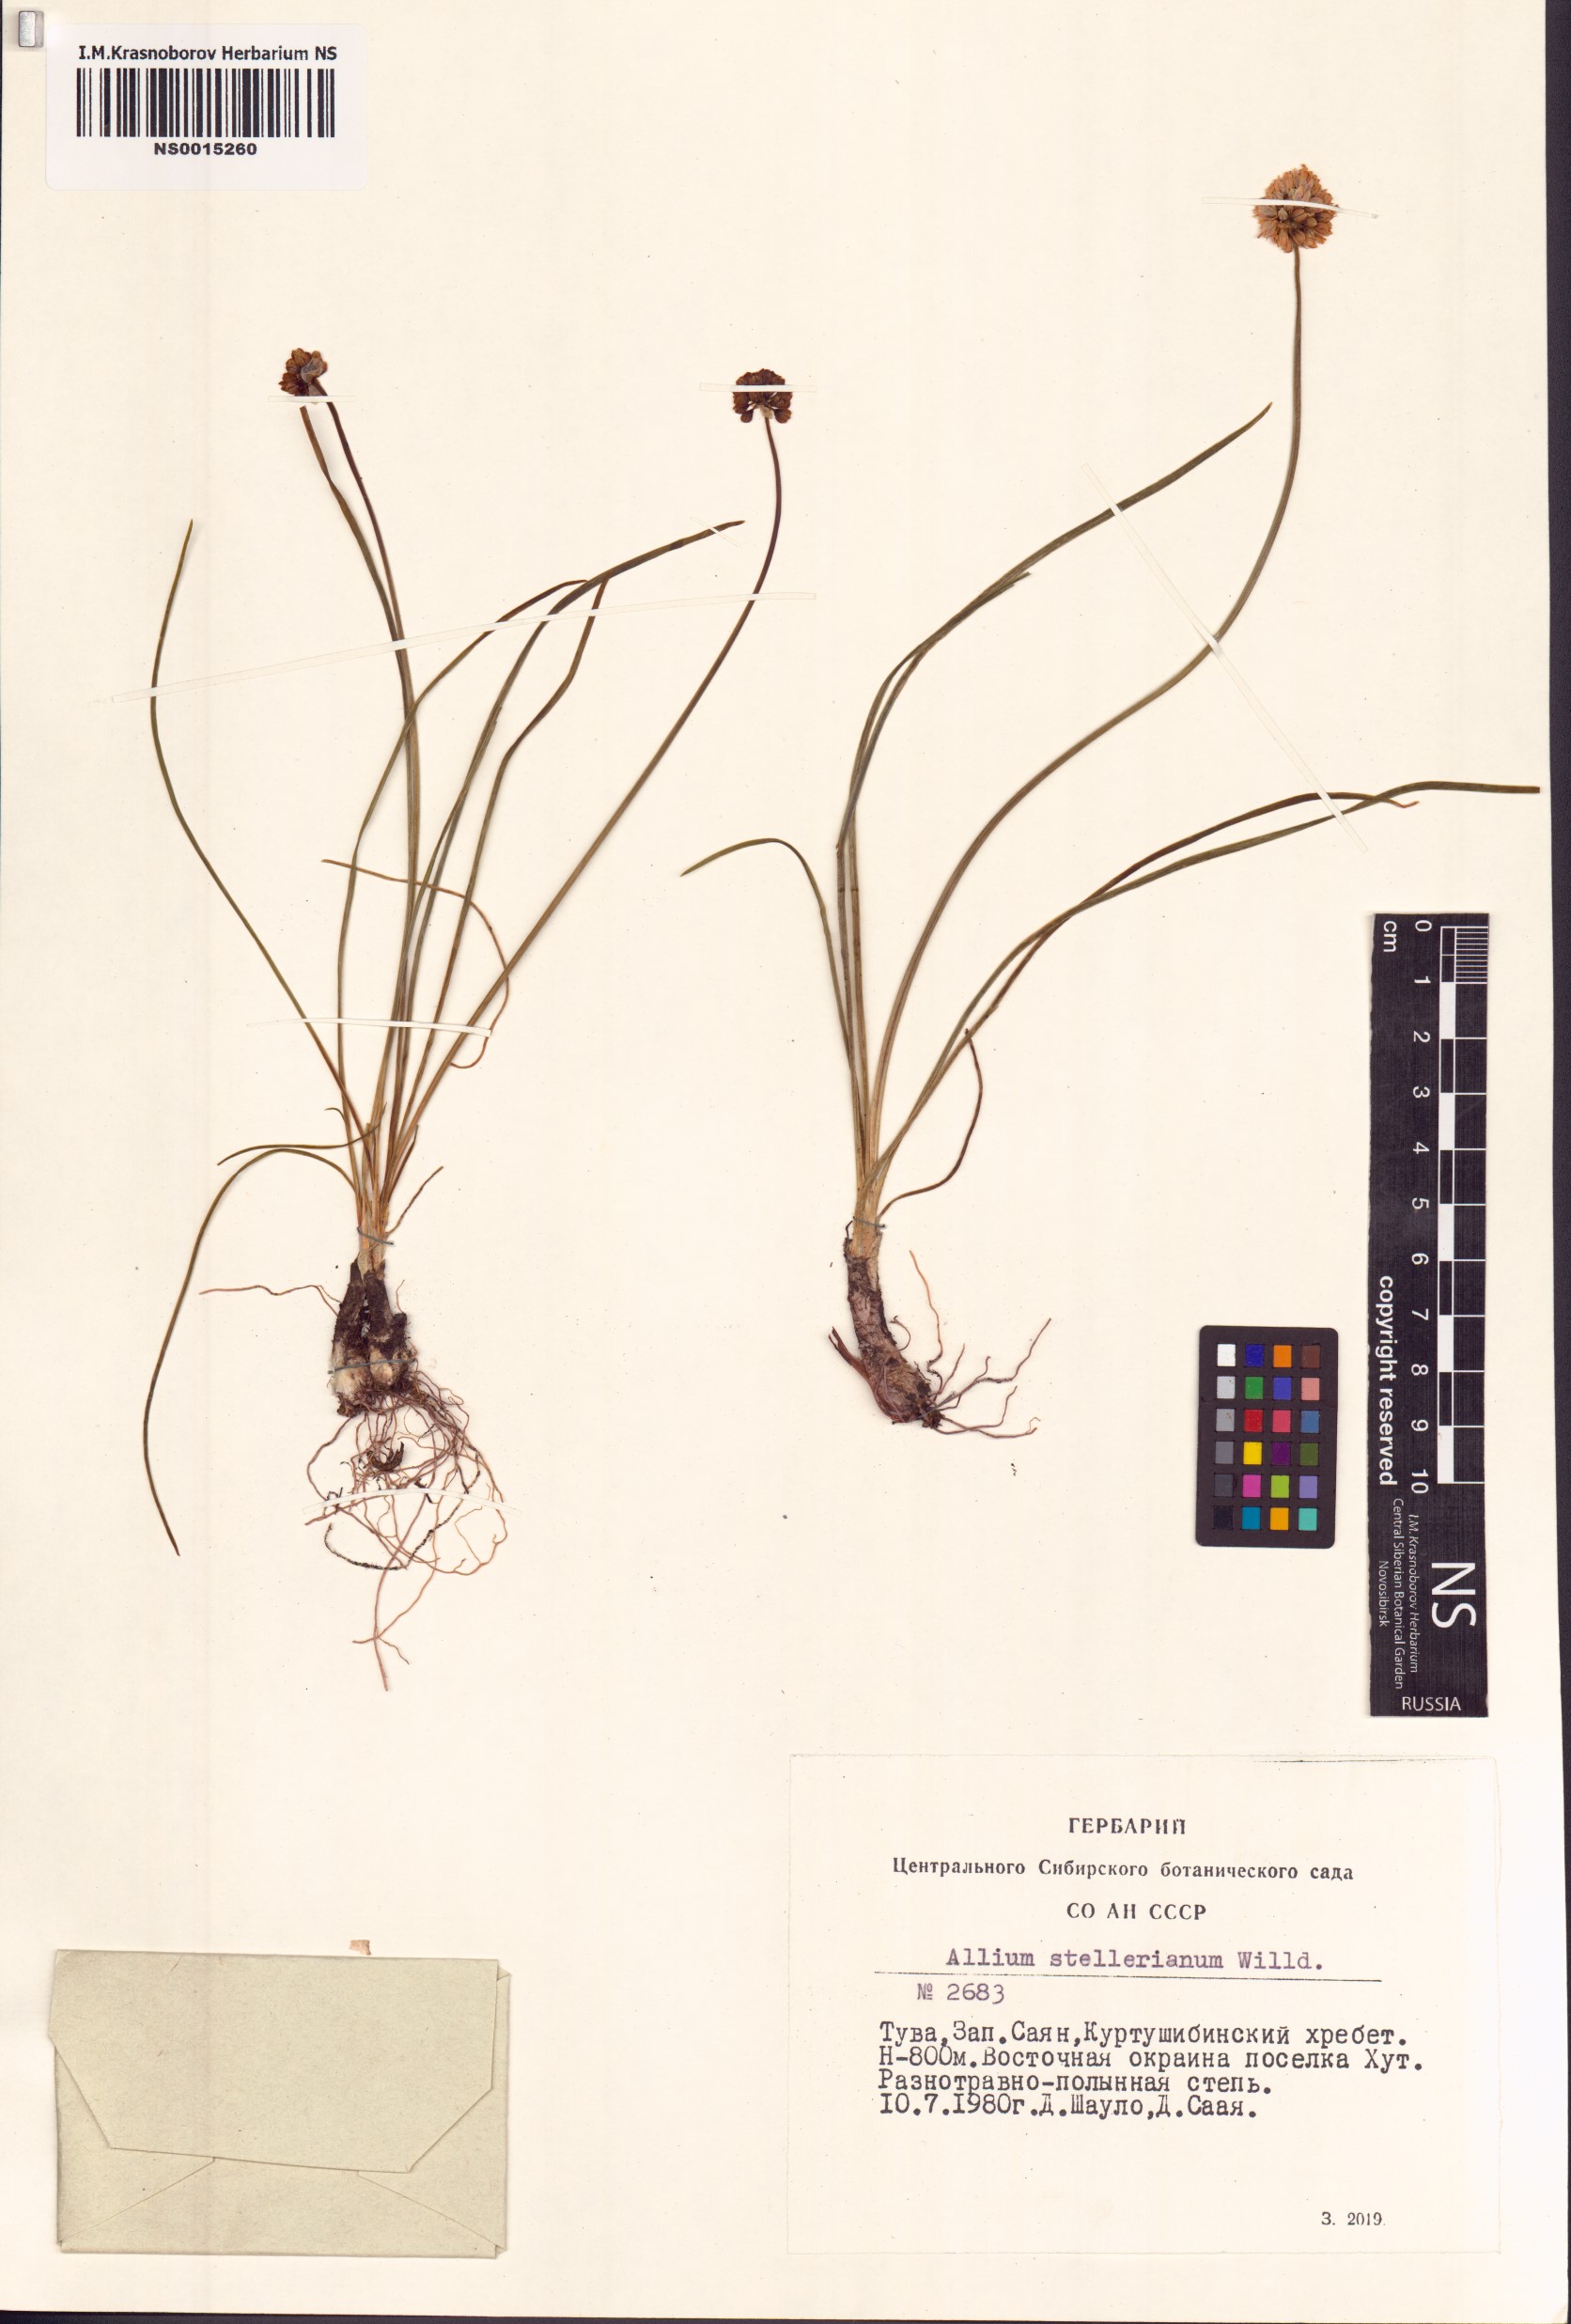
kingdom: Plantae
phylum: Tracheophyta
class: Liliopsida
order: Asparagales
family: Amaryllidaceae
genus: Allium
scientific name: Allium stellerianum
